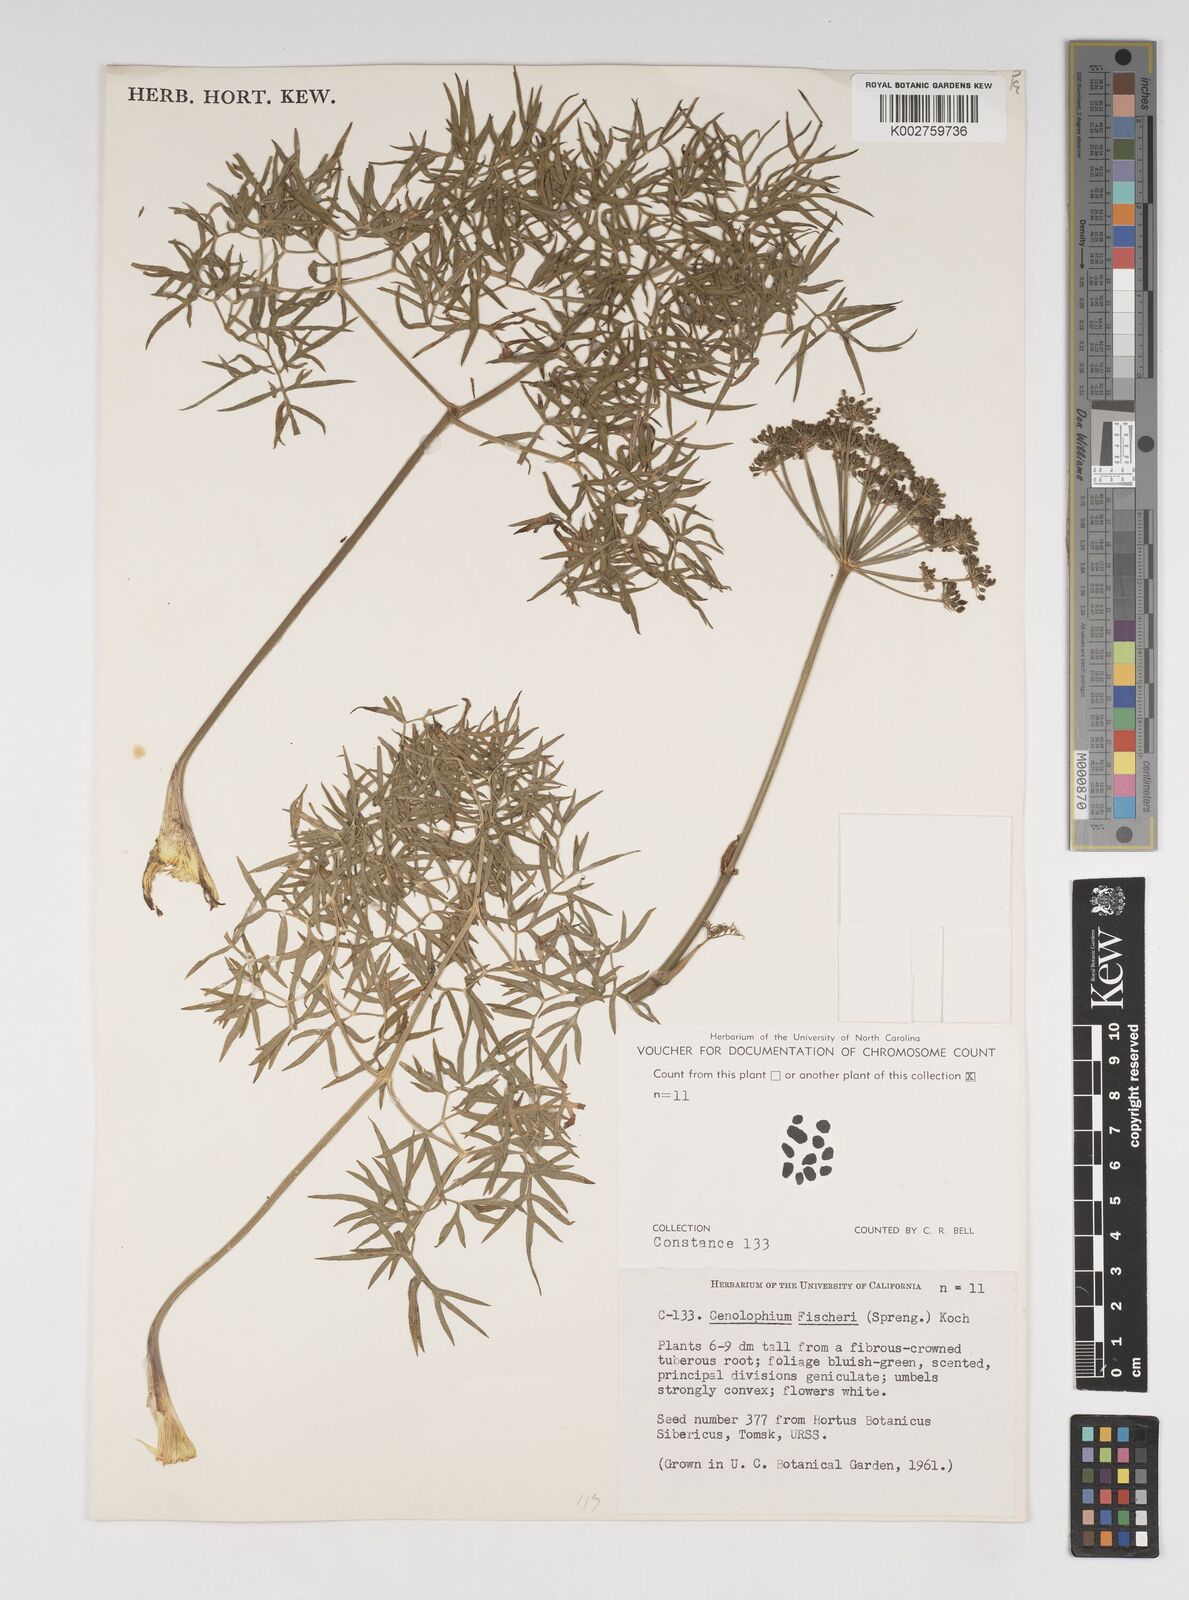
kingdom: Plantae
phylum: Tracheophyta
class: Magnoliopsida
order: Apiales
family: Apiaceae
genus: Cenolophium
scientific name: Cenolophium fischeri
